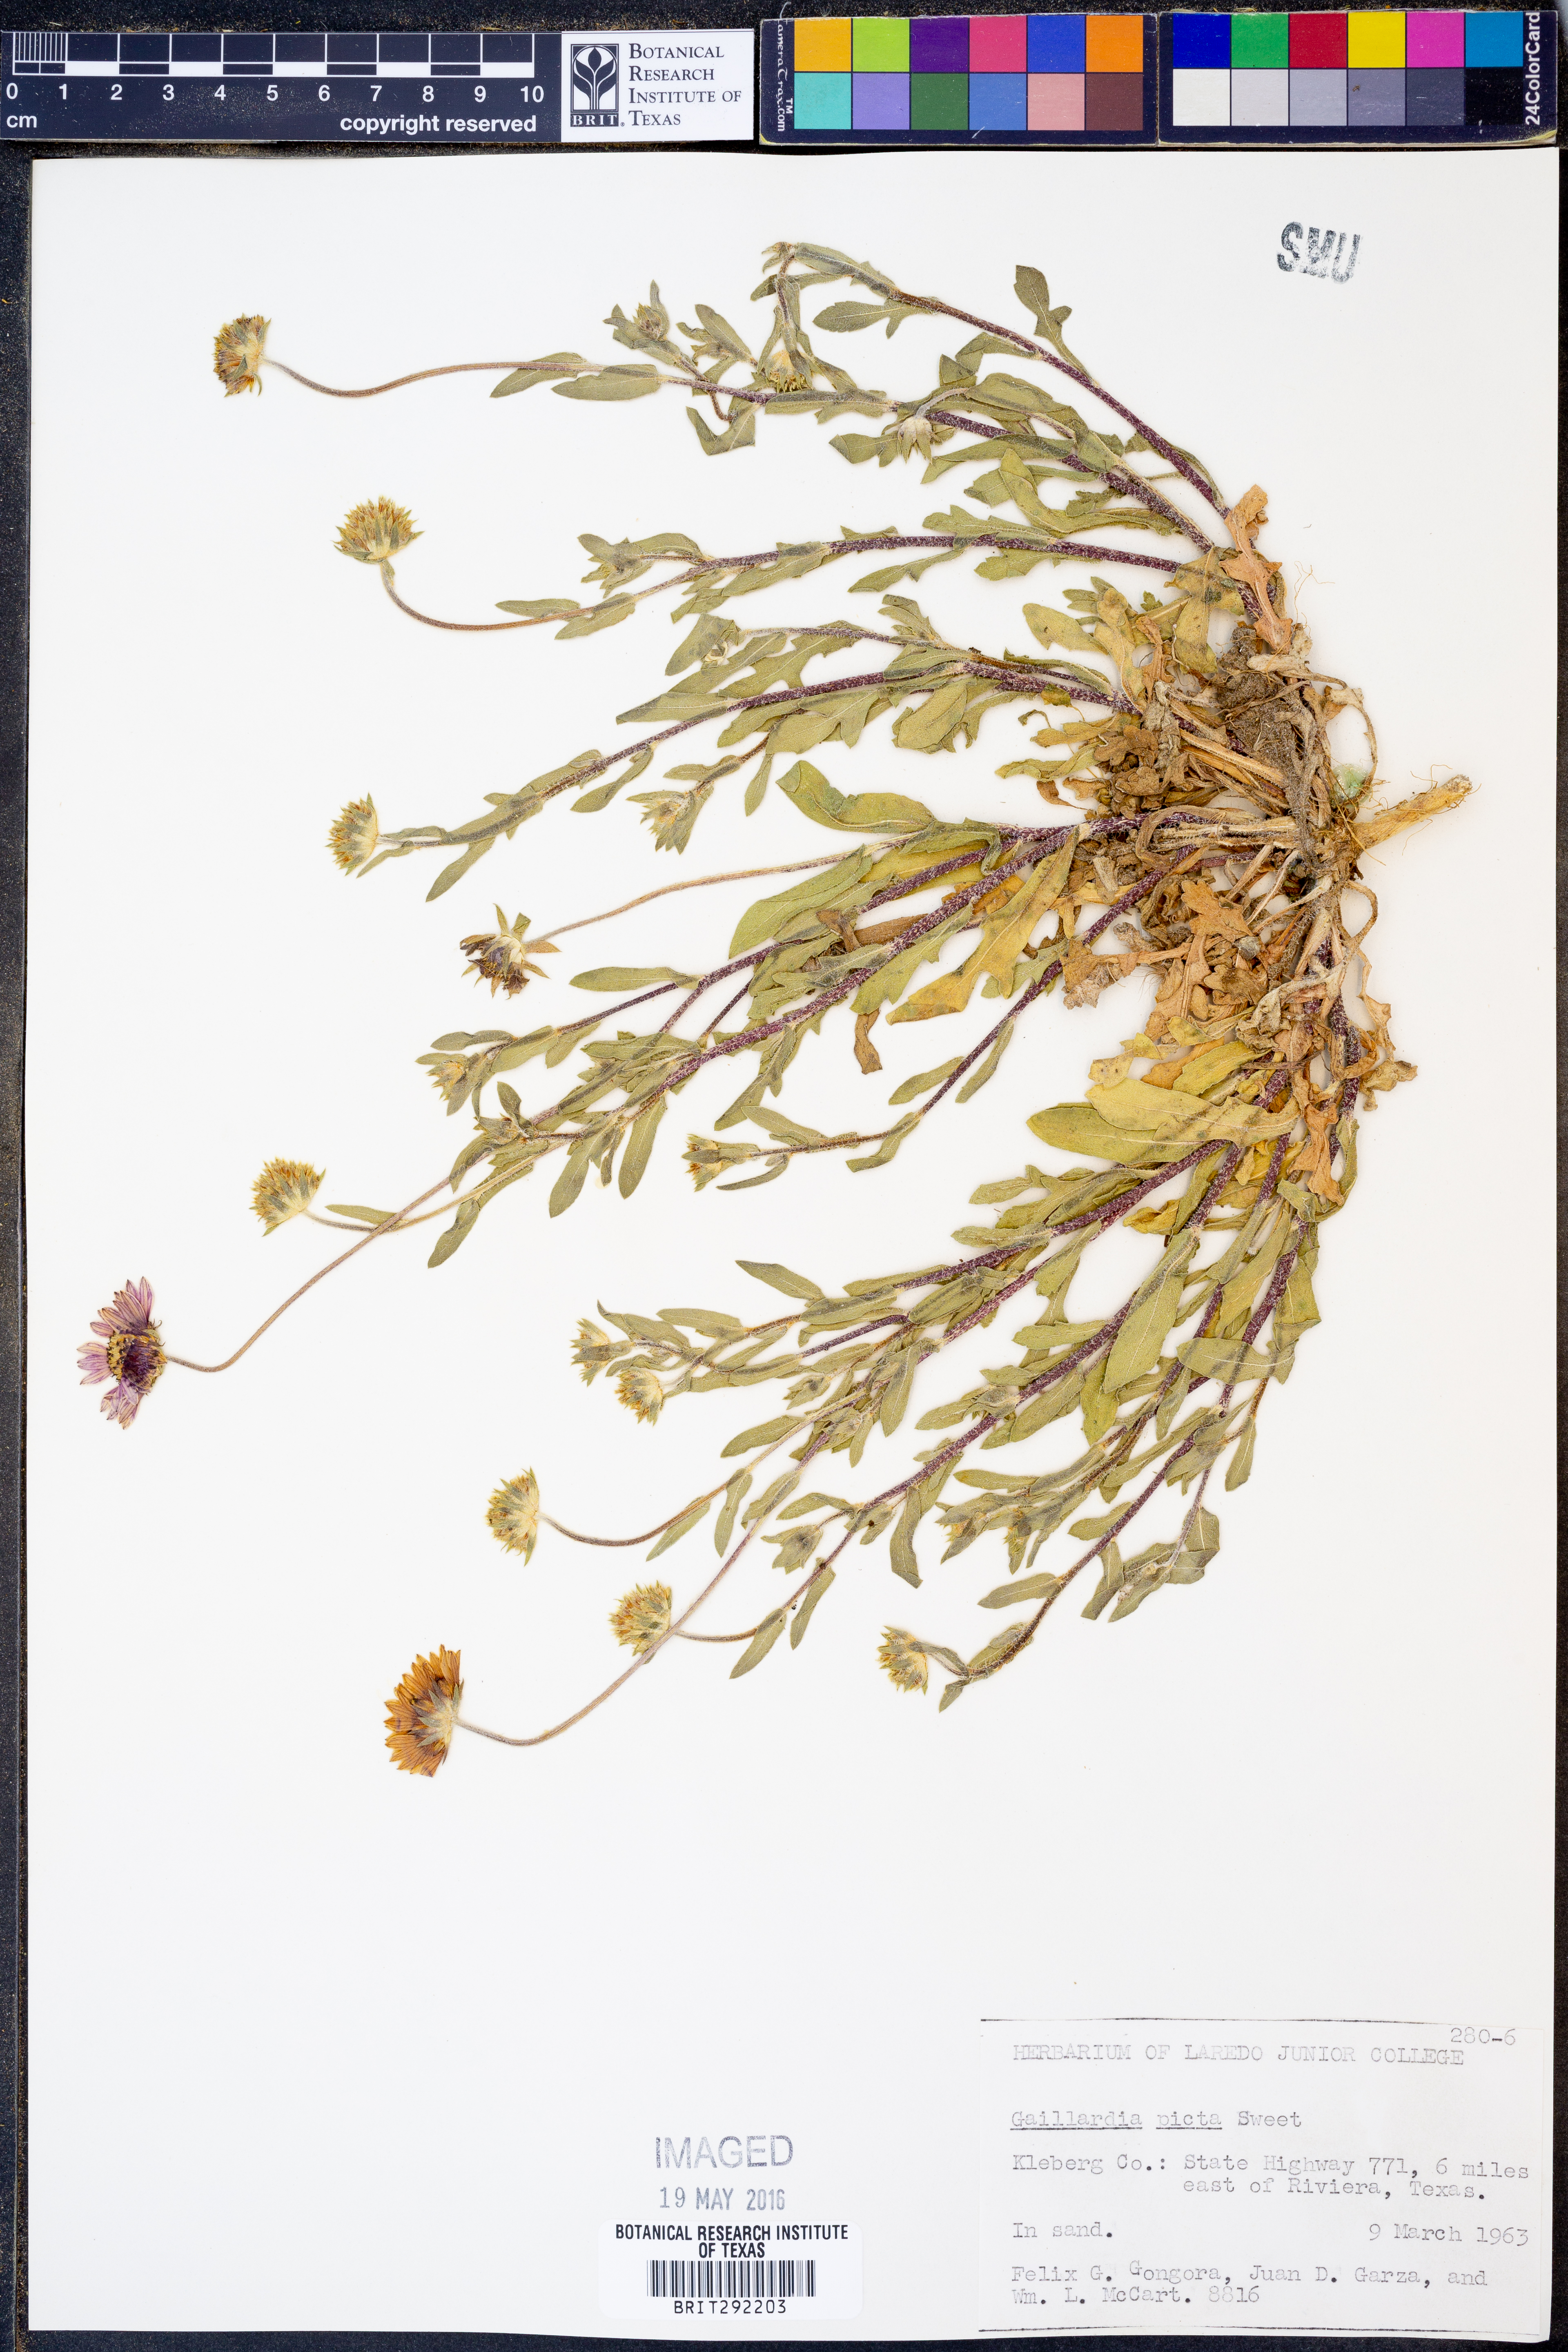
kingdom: Plantae
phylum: Tracheophyta
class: Magnoliopsida
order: Asterales
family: Asteraceae
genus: Gaillardia
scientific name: Gaillardia pulchella
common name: Firewheel
